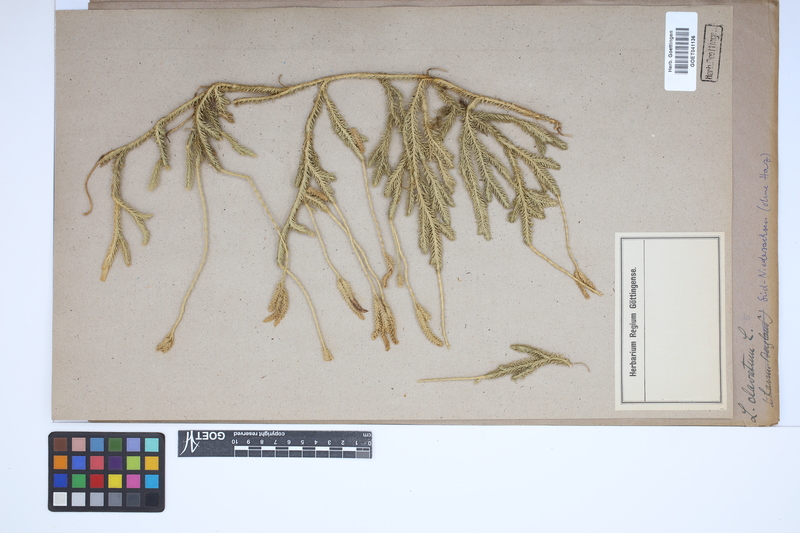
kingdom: Plantae
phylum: Tracheophyta
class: Lycopodiopsida
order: Lycopodiales
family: Lycopodiaceae
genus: Lycopodium
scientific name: Lycopodium clavatum
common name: Stag's-horn clubmoss
